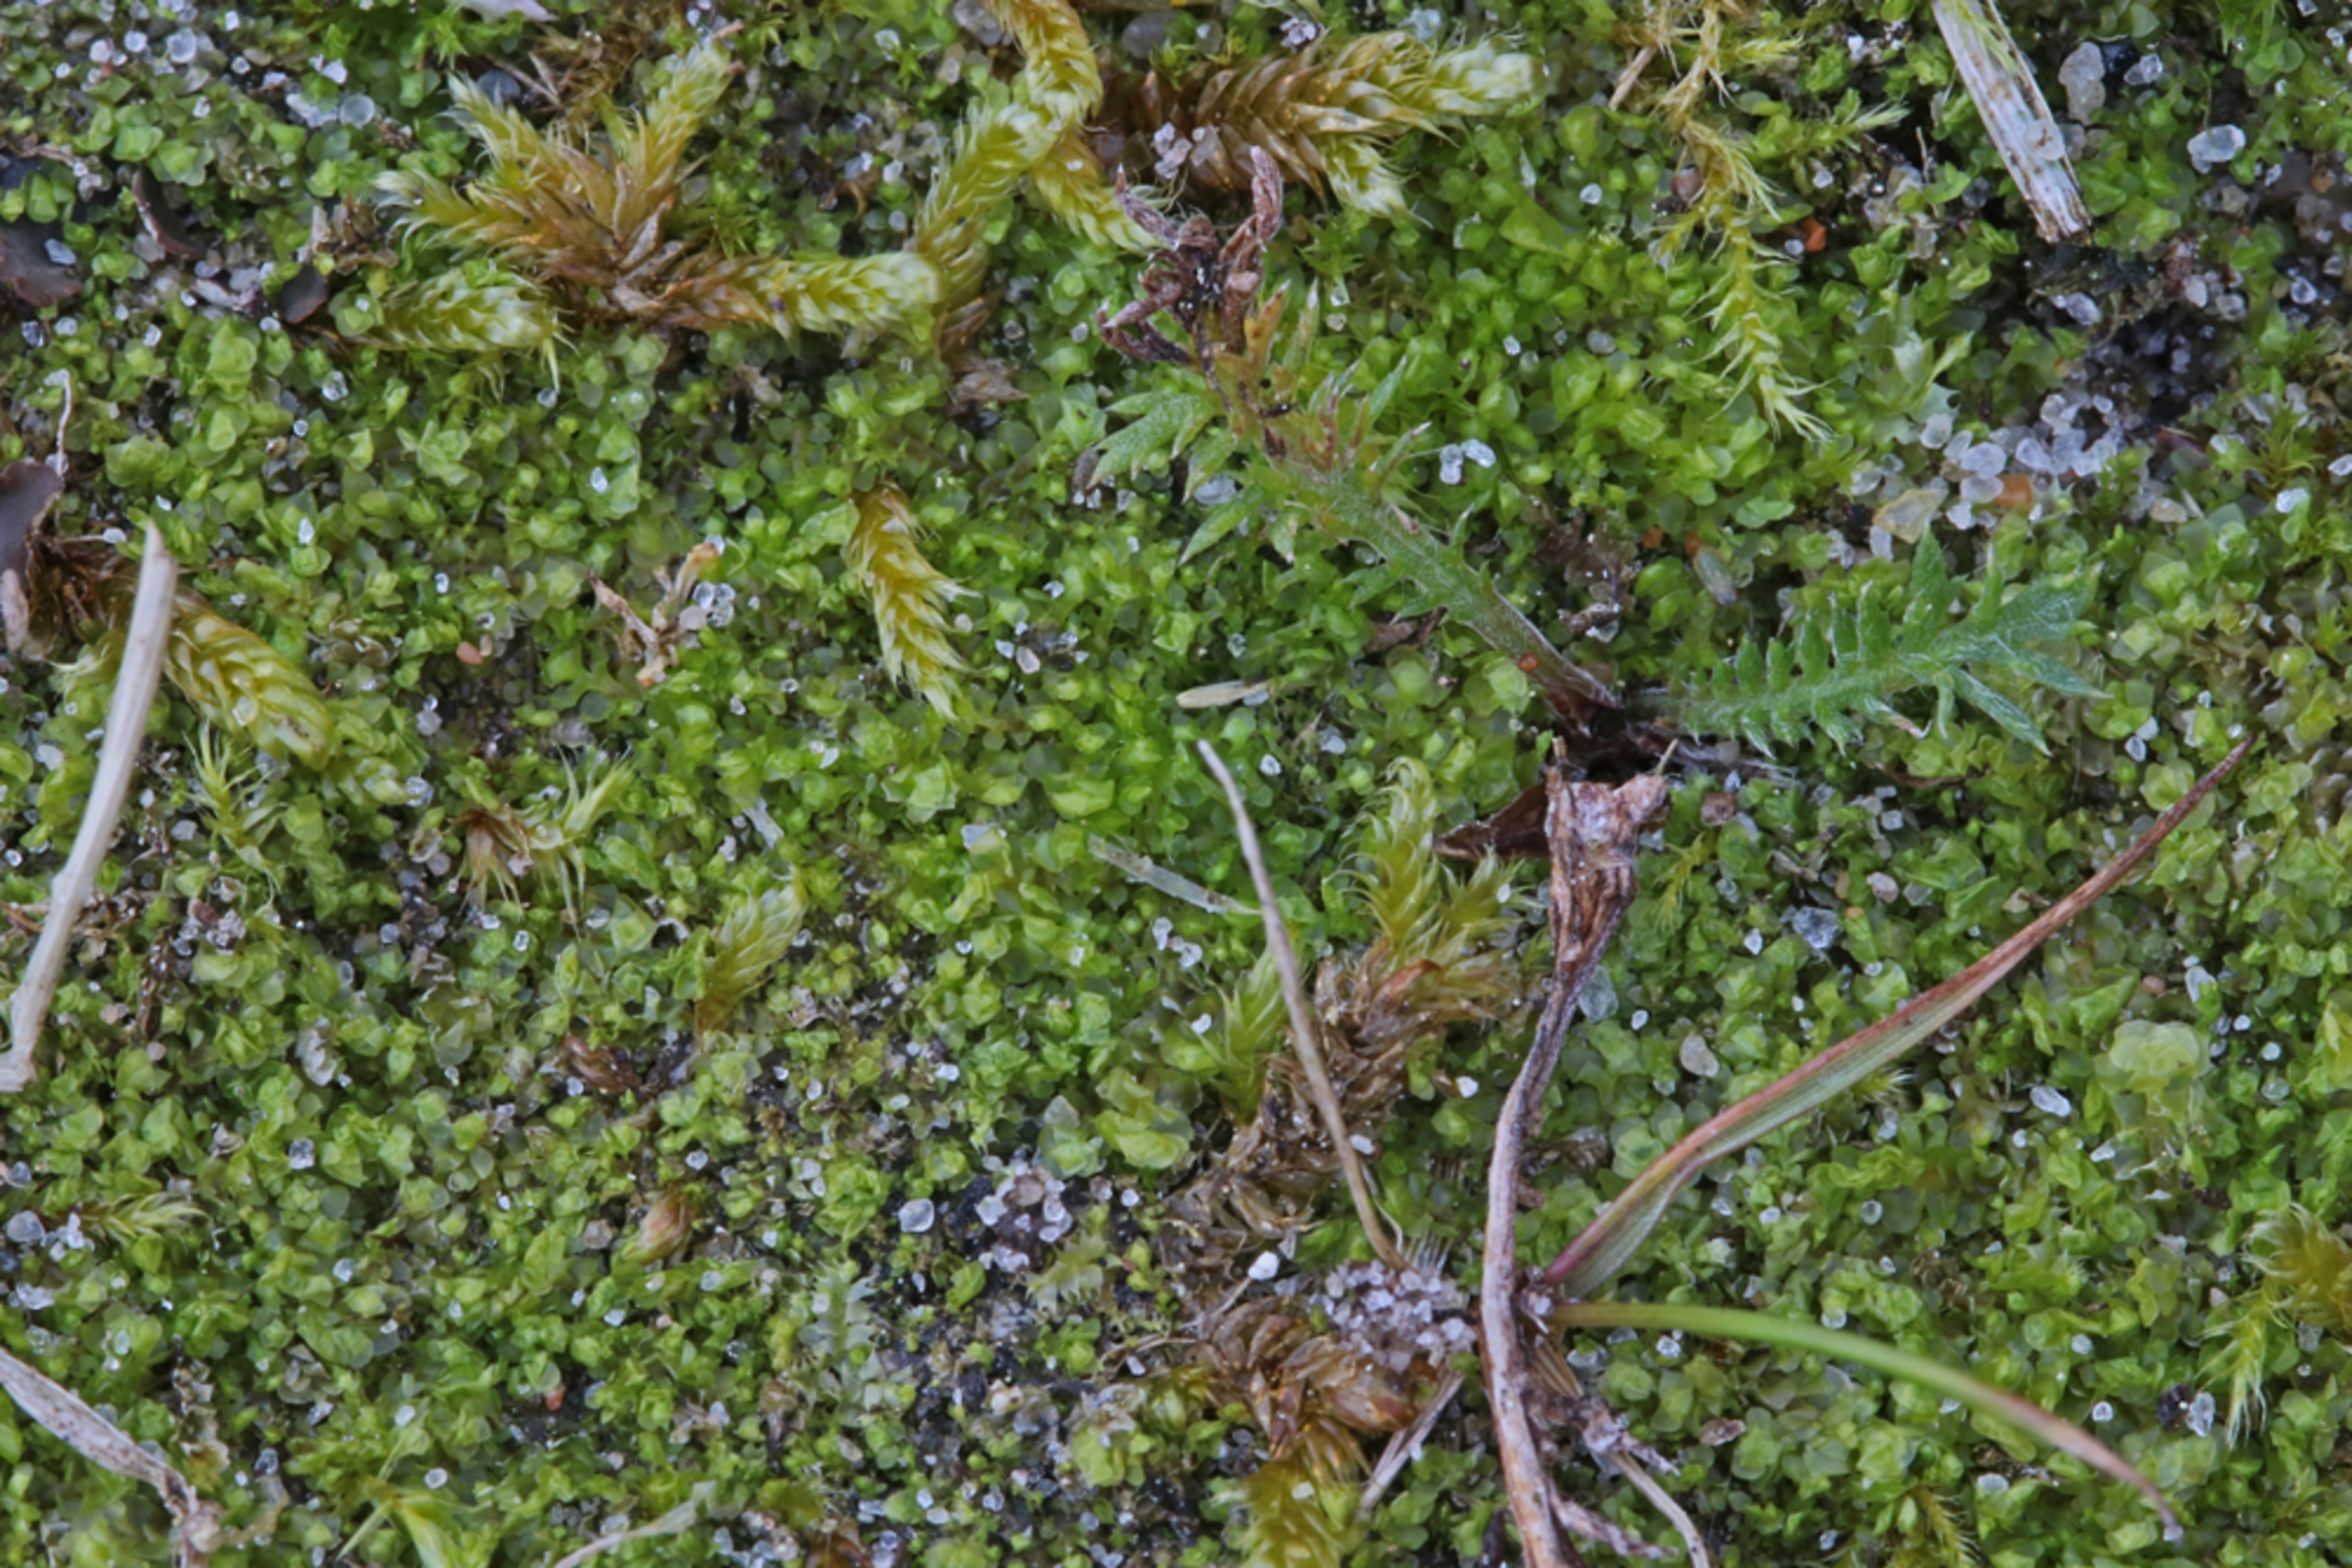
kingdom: Plantae
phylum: Marchantiophyta
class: Jungermanniopsida
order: Jungermanniales
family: Scapaniaceae
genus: Scapania
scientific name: Scapania scandica
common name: Liden tveblad
